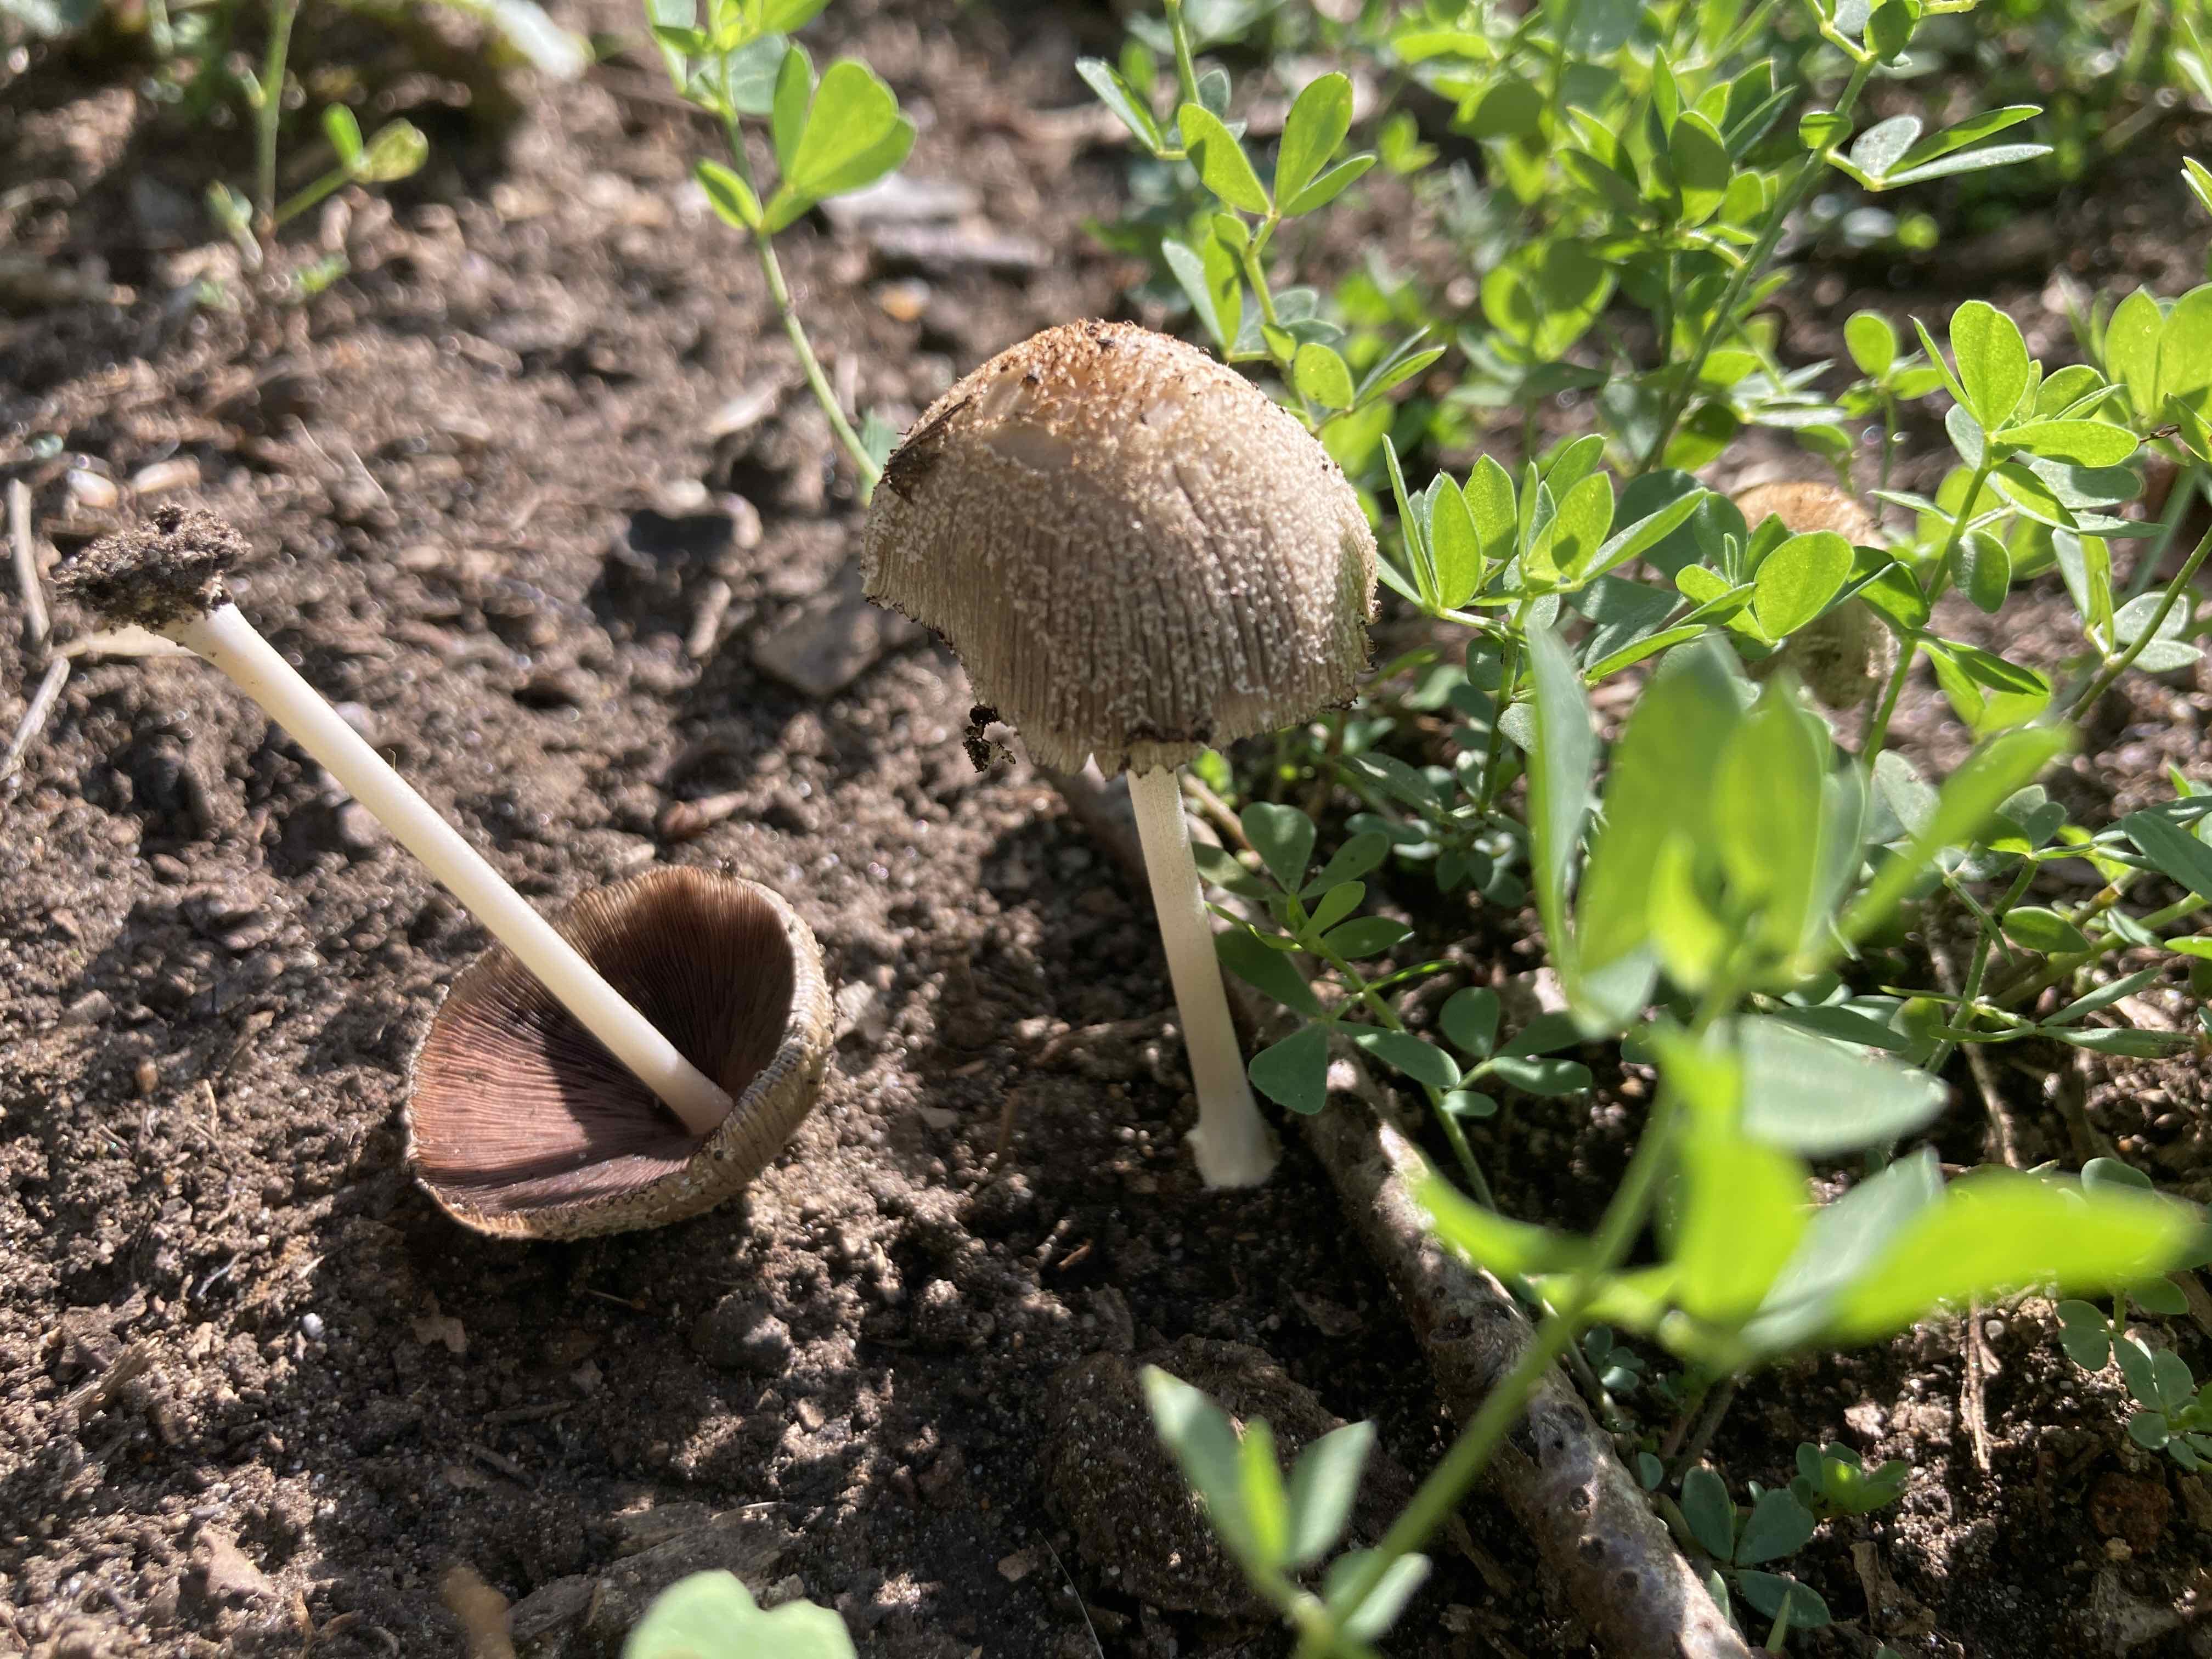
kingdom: Fungi
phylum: Basidiomycota
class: Agaricomycetes
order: Agaricales
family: Psathyrellaceae
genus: Coprinellus
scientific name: Coprinellus
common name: blækhat
